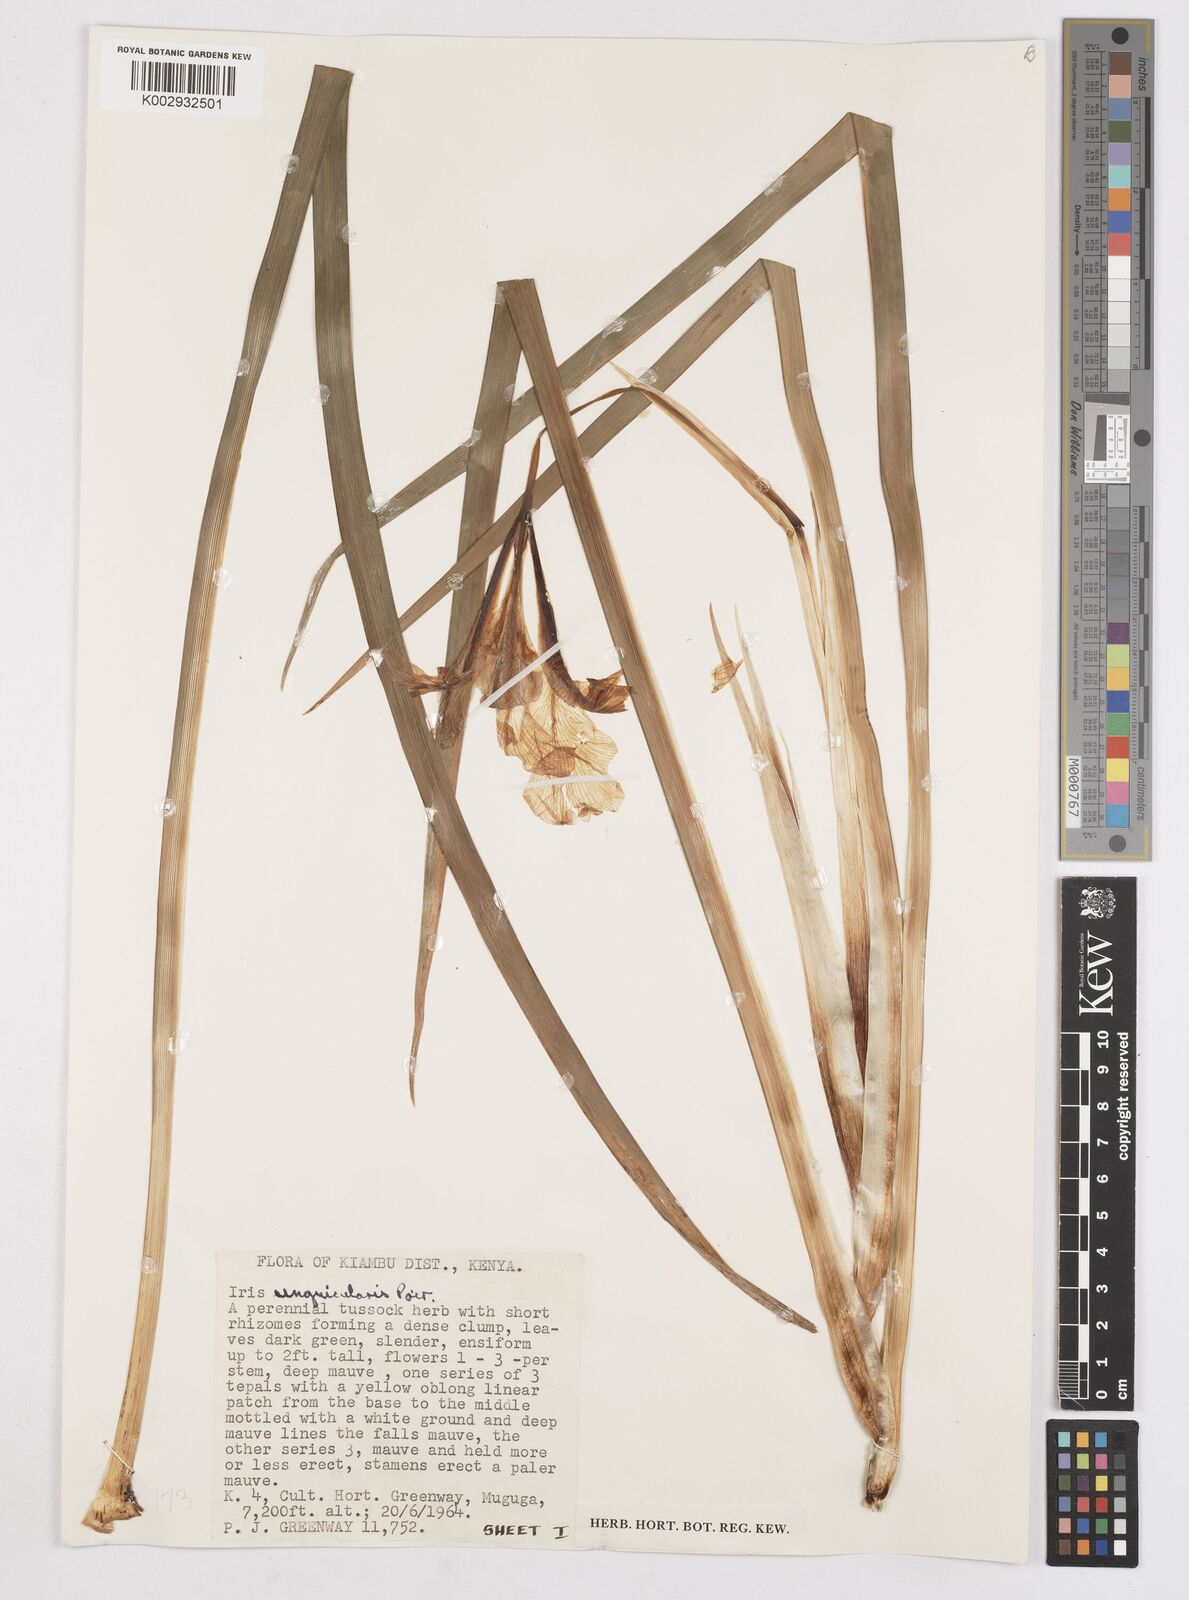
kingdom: Plantae
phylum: Tracheophyta
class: Liliopsida
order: Asparagales
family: Iridaceae
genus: Iris
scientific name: Iris unguicularis
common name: Algerian iris
